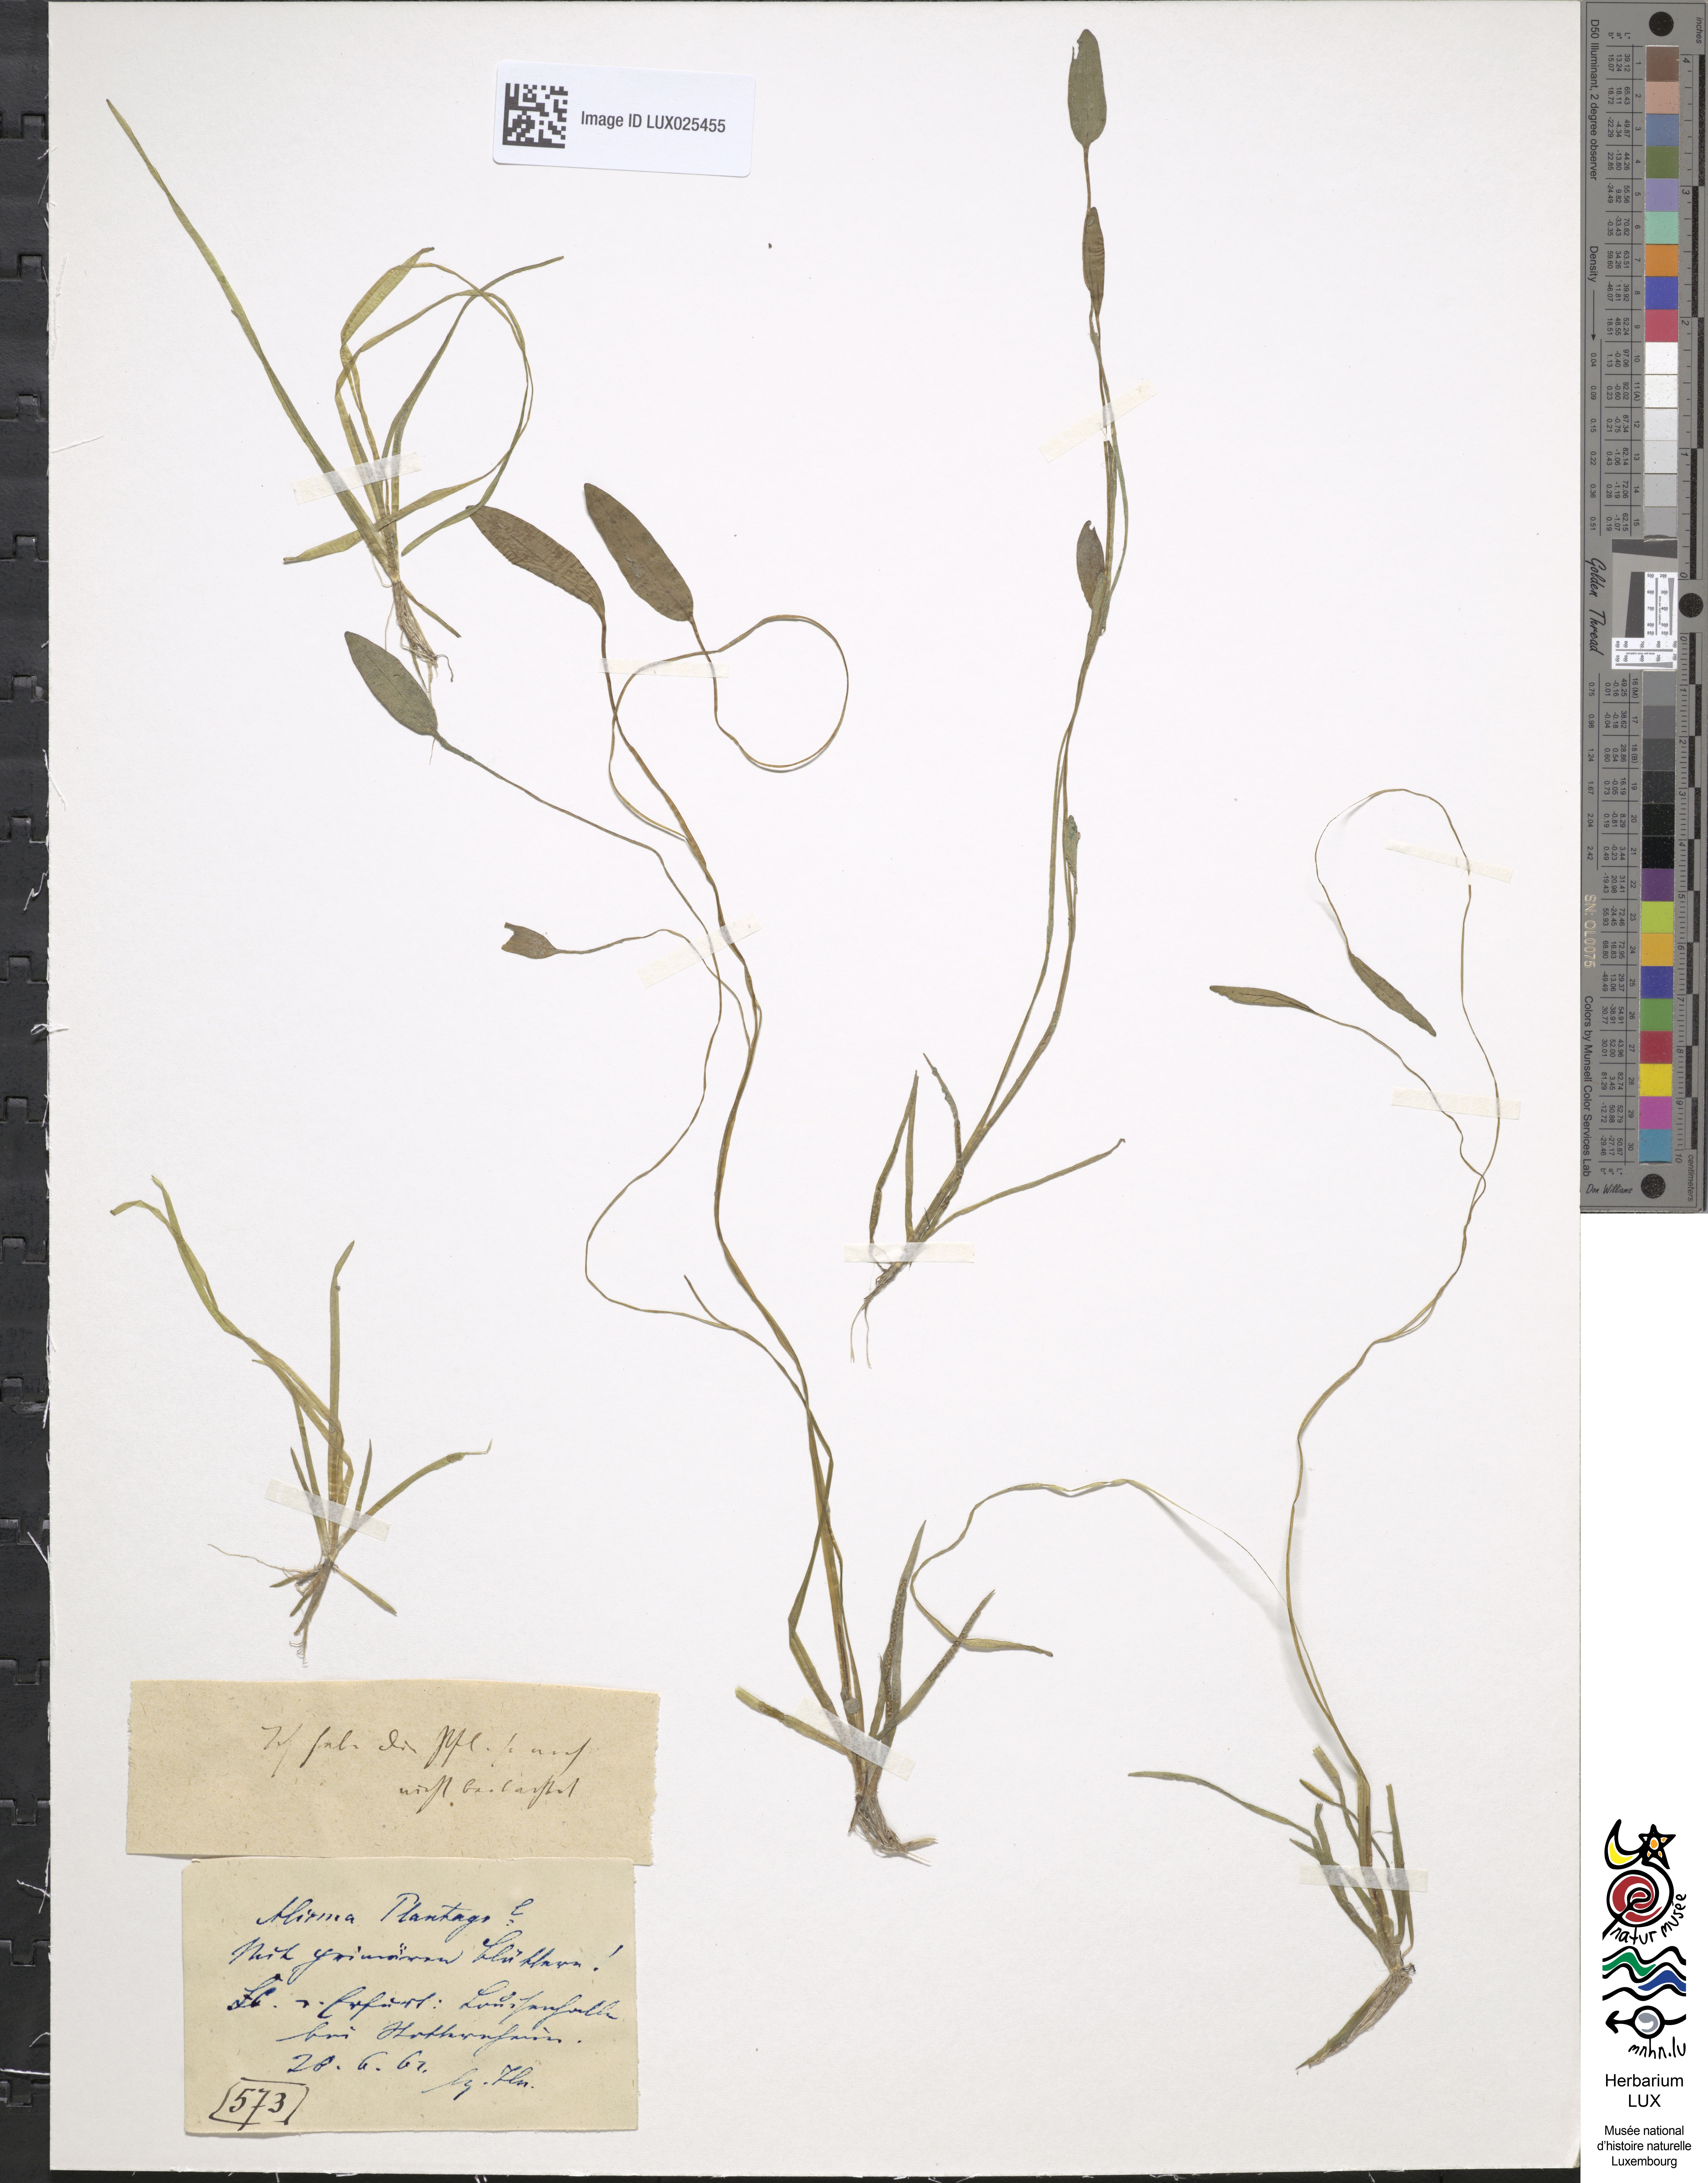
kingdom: Plantae
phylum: Tracheophyta
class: Liliopsida
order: Alismatales
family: Alismataceae
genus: Alisma
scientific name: Alisma plantago-aquatica
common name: Water-plantain
